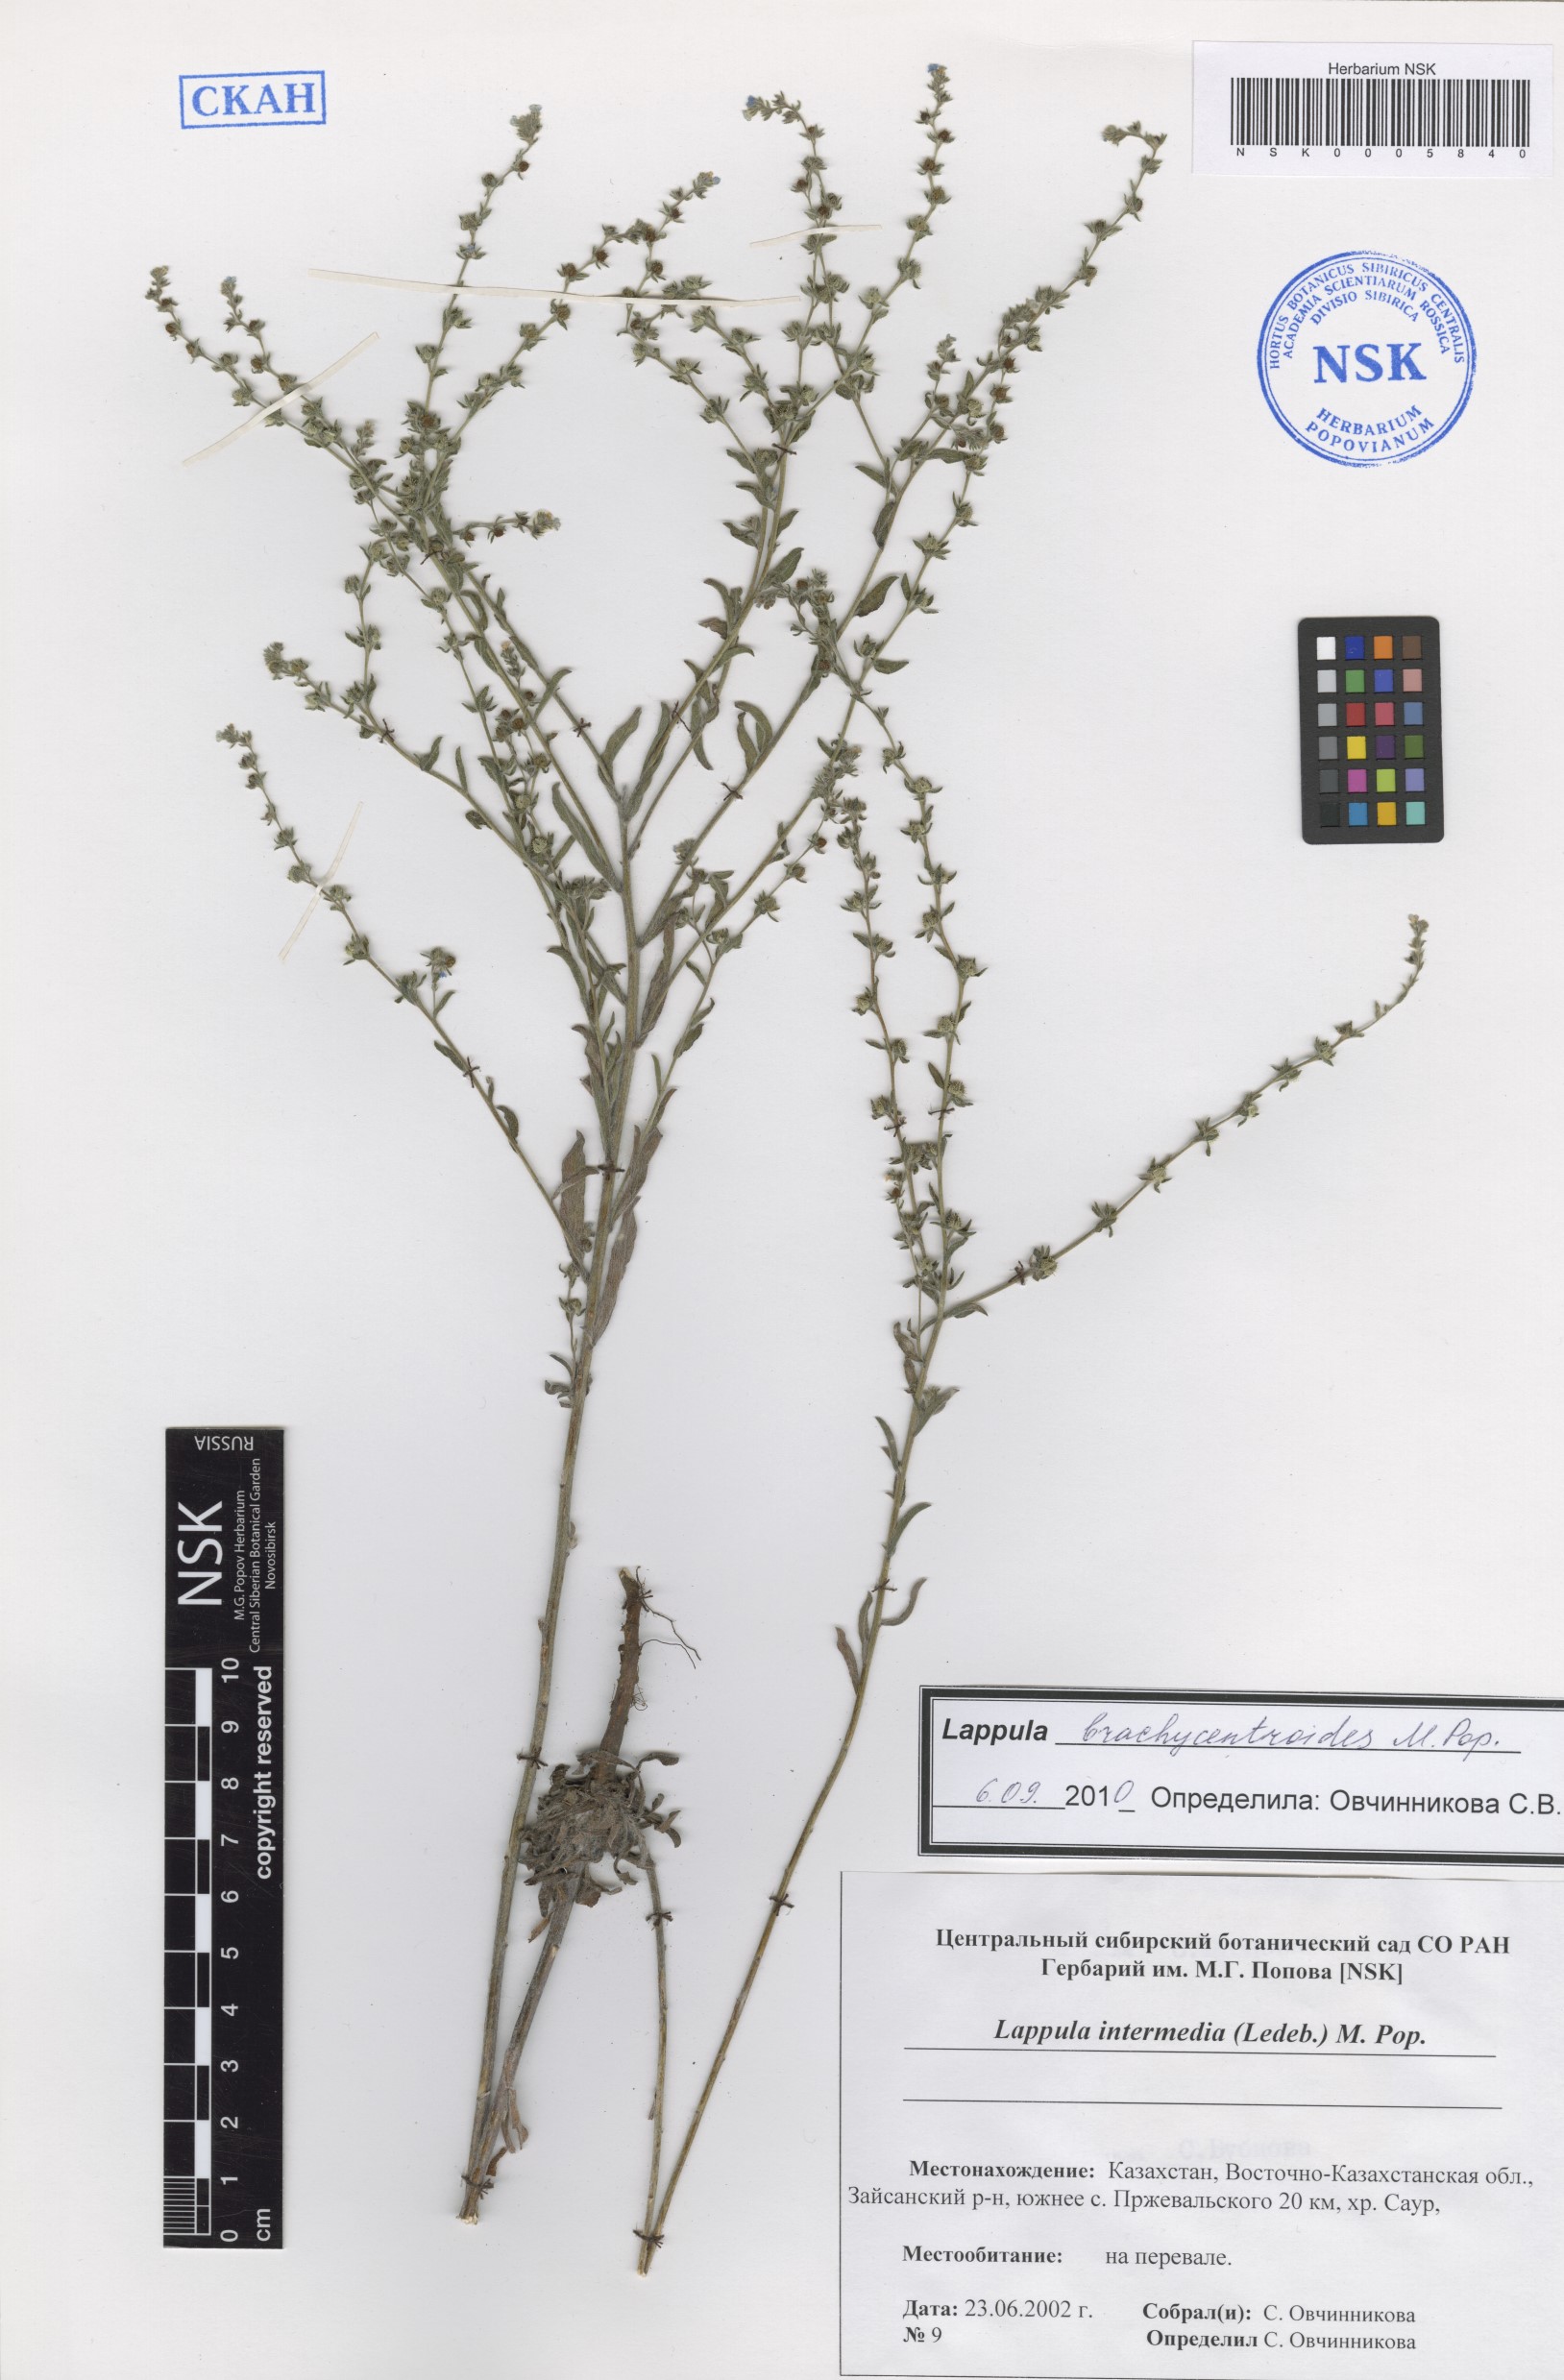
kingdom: Plantae
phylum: Tracheophyta
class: Magnoliopsida
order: Boraginales
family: Boraginaceae
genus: Lappula
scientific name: Lappula brachycentroides
